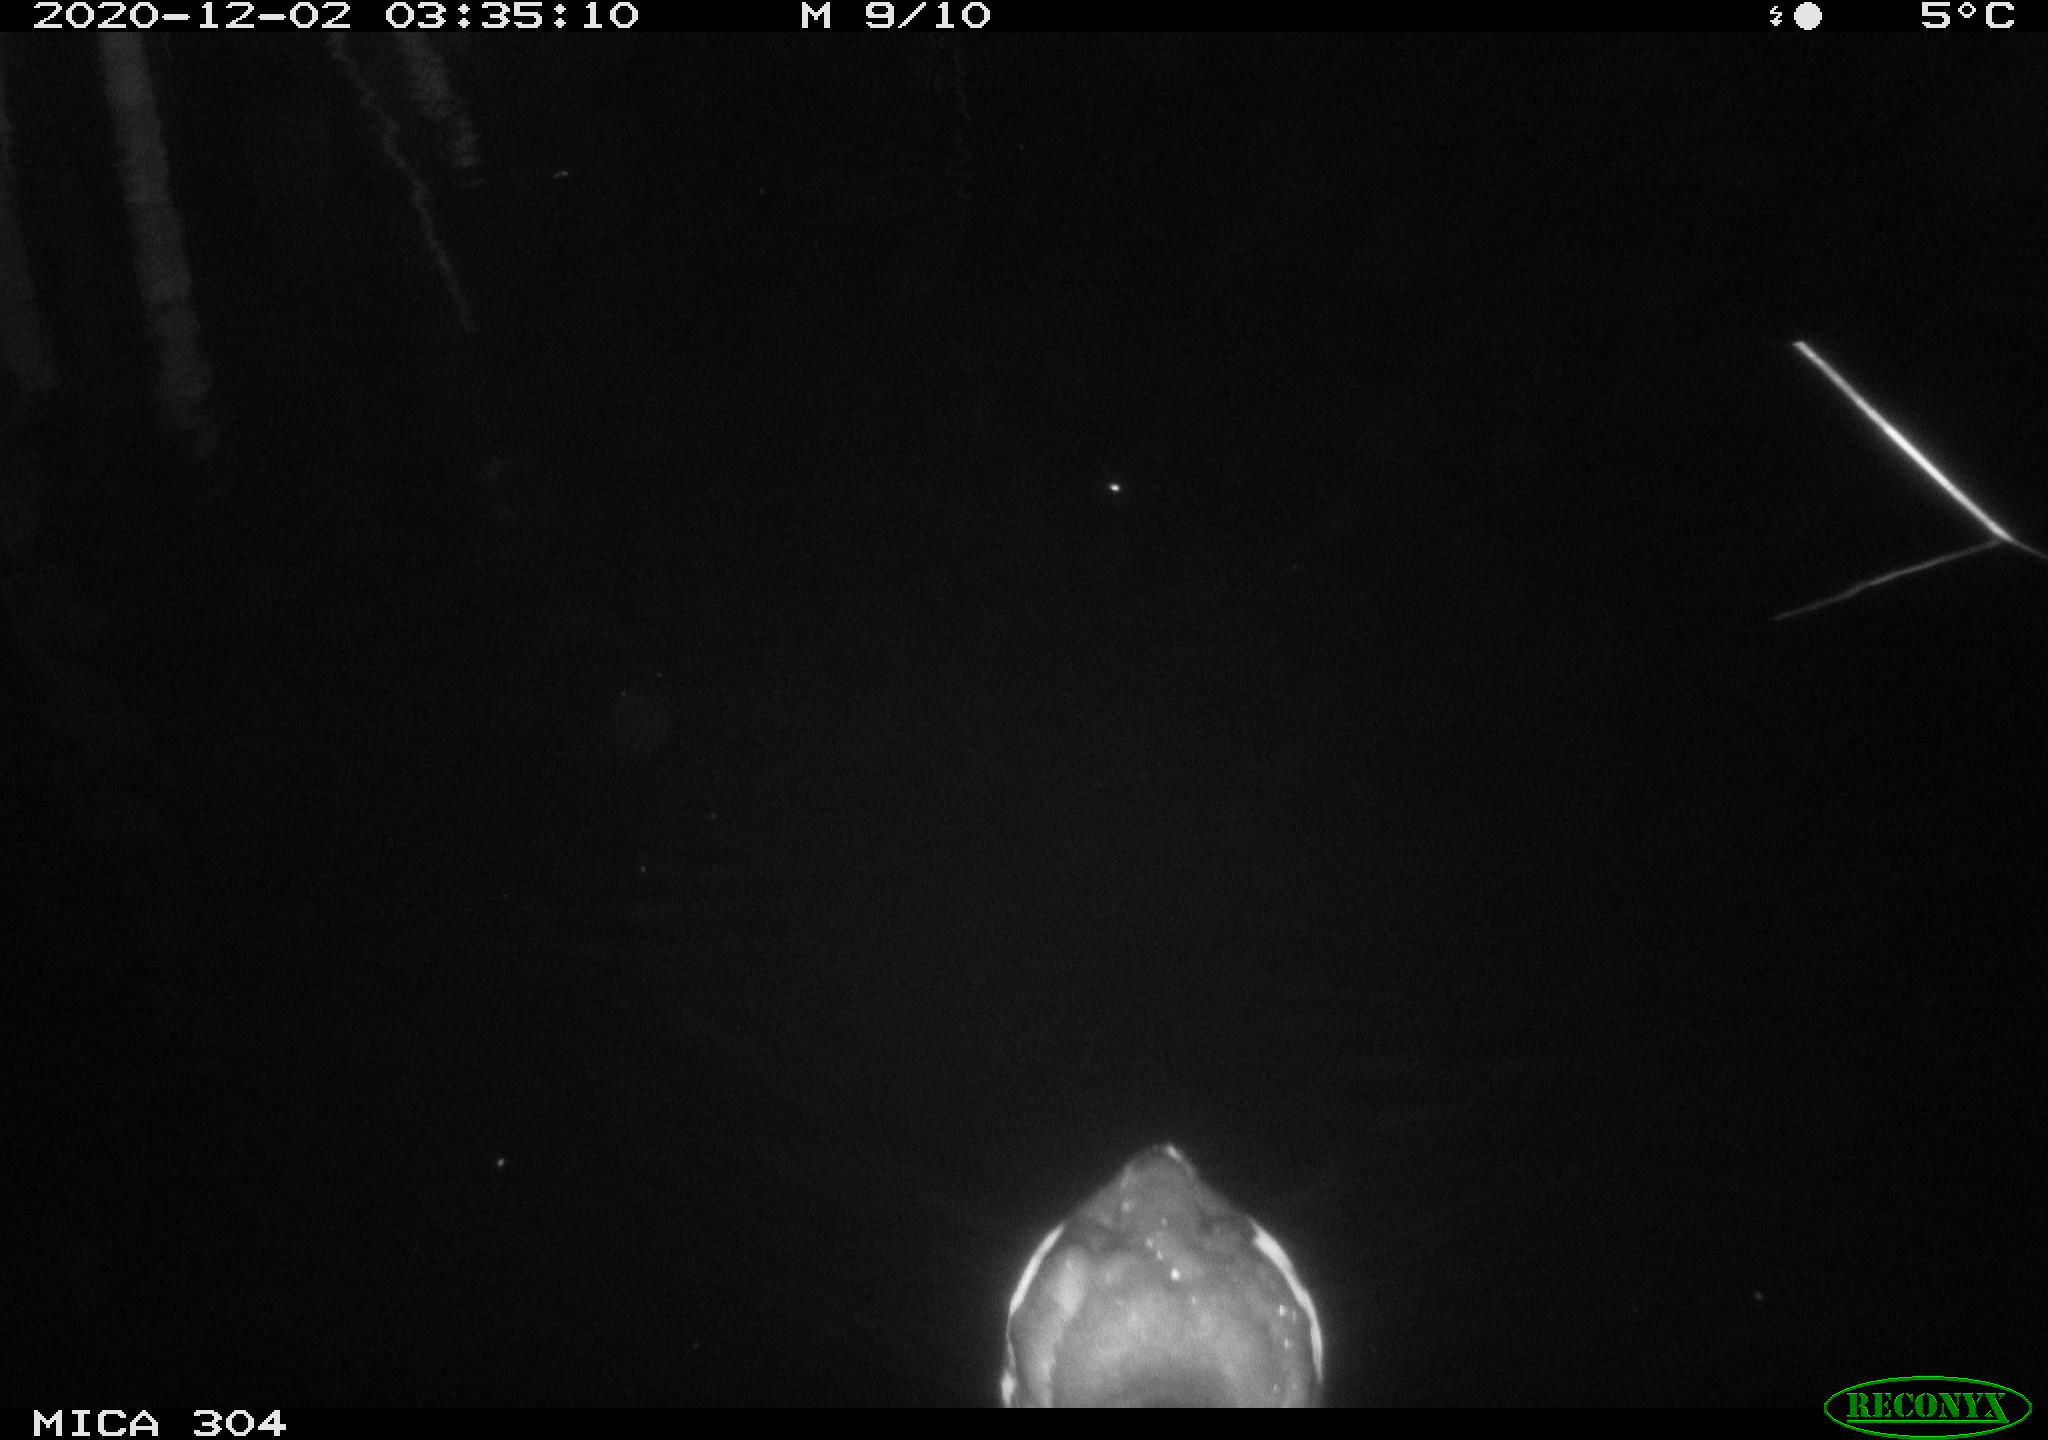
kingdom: Animalia
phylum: Chordata
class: Aves
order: Gruiformes
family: Rallidae
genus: Gallinula
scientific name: Gallinula chloropus
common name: Common moorhen
